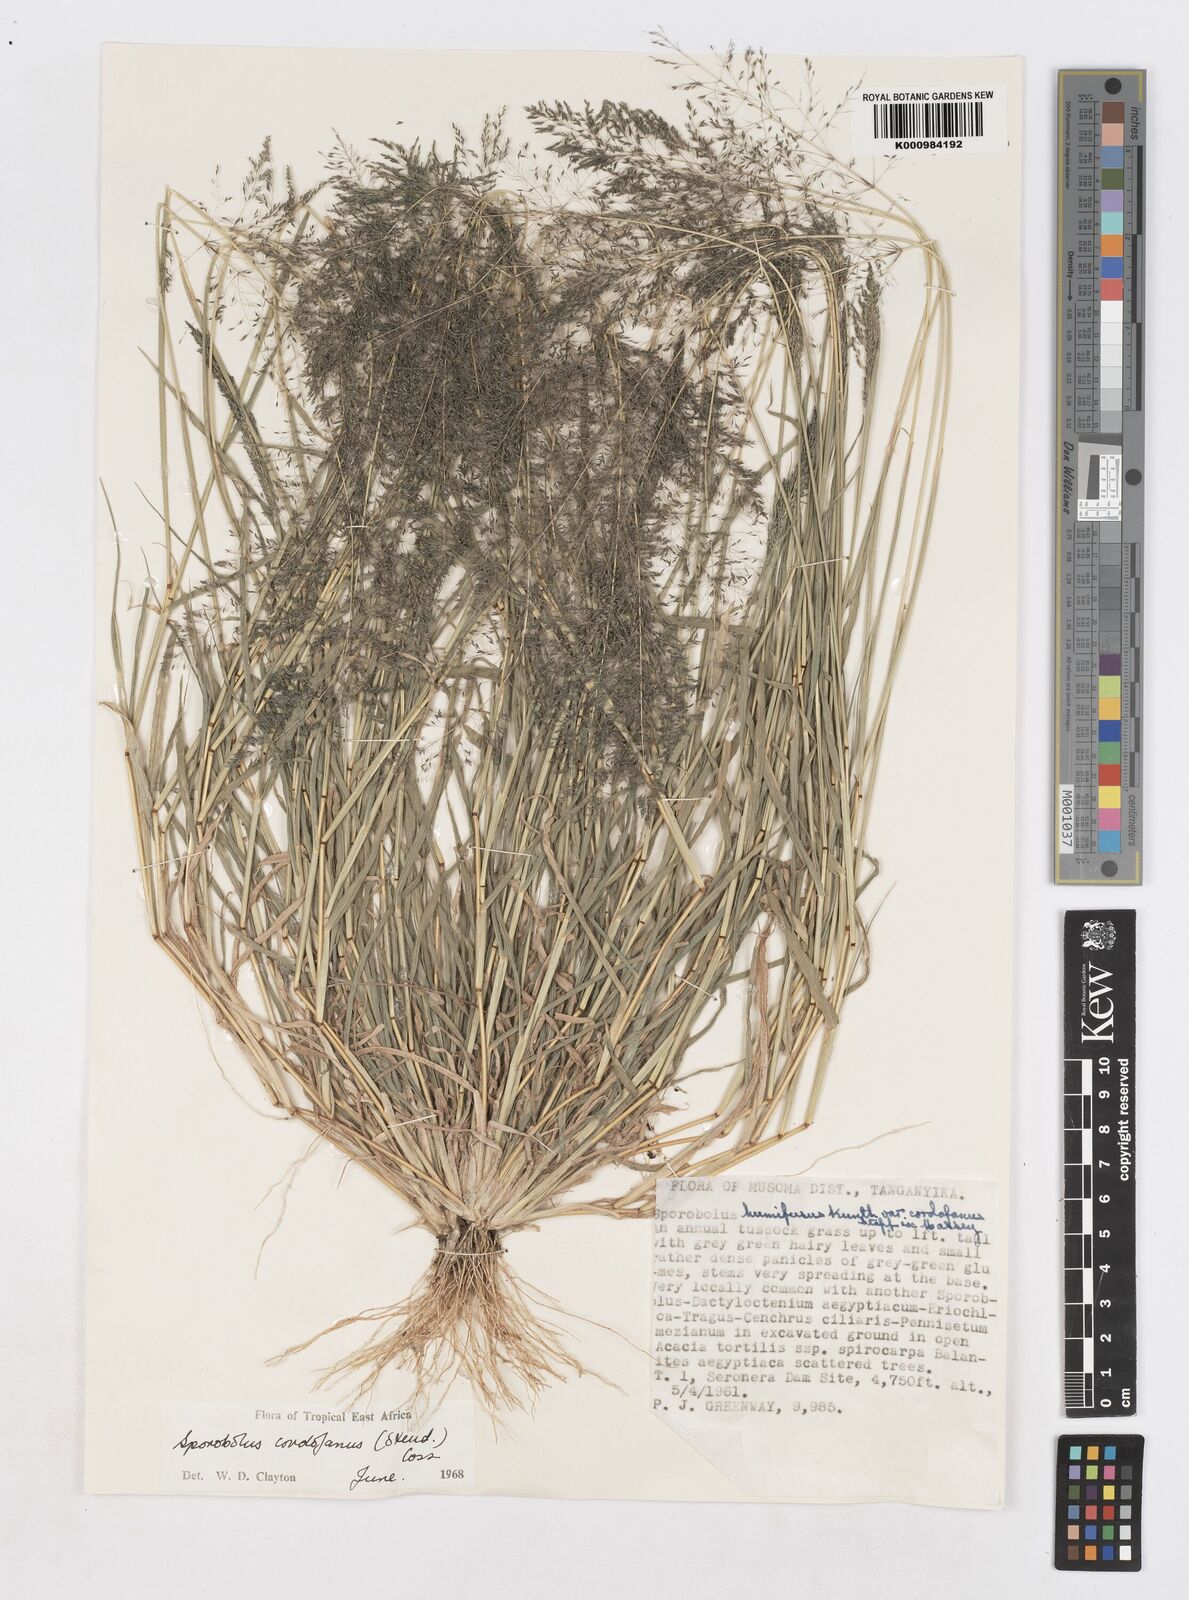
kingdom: Plantae
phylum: Tracheophyta
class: Liliopsida
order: Poales
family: Poaceae
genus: Sporobolus
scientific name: Sporobolus cordofanus
